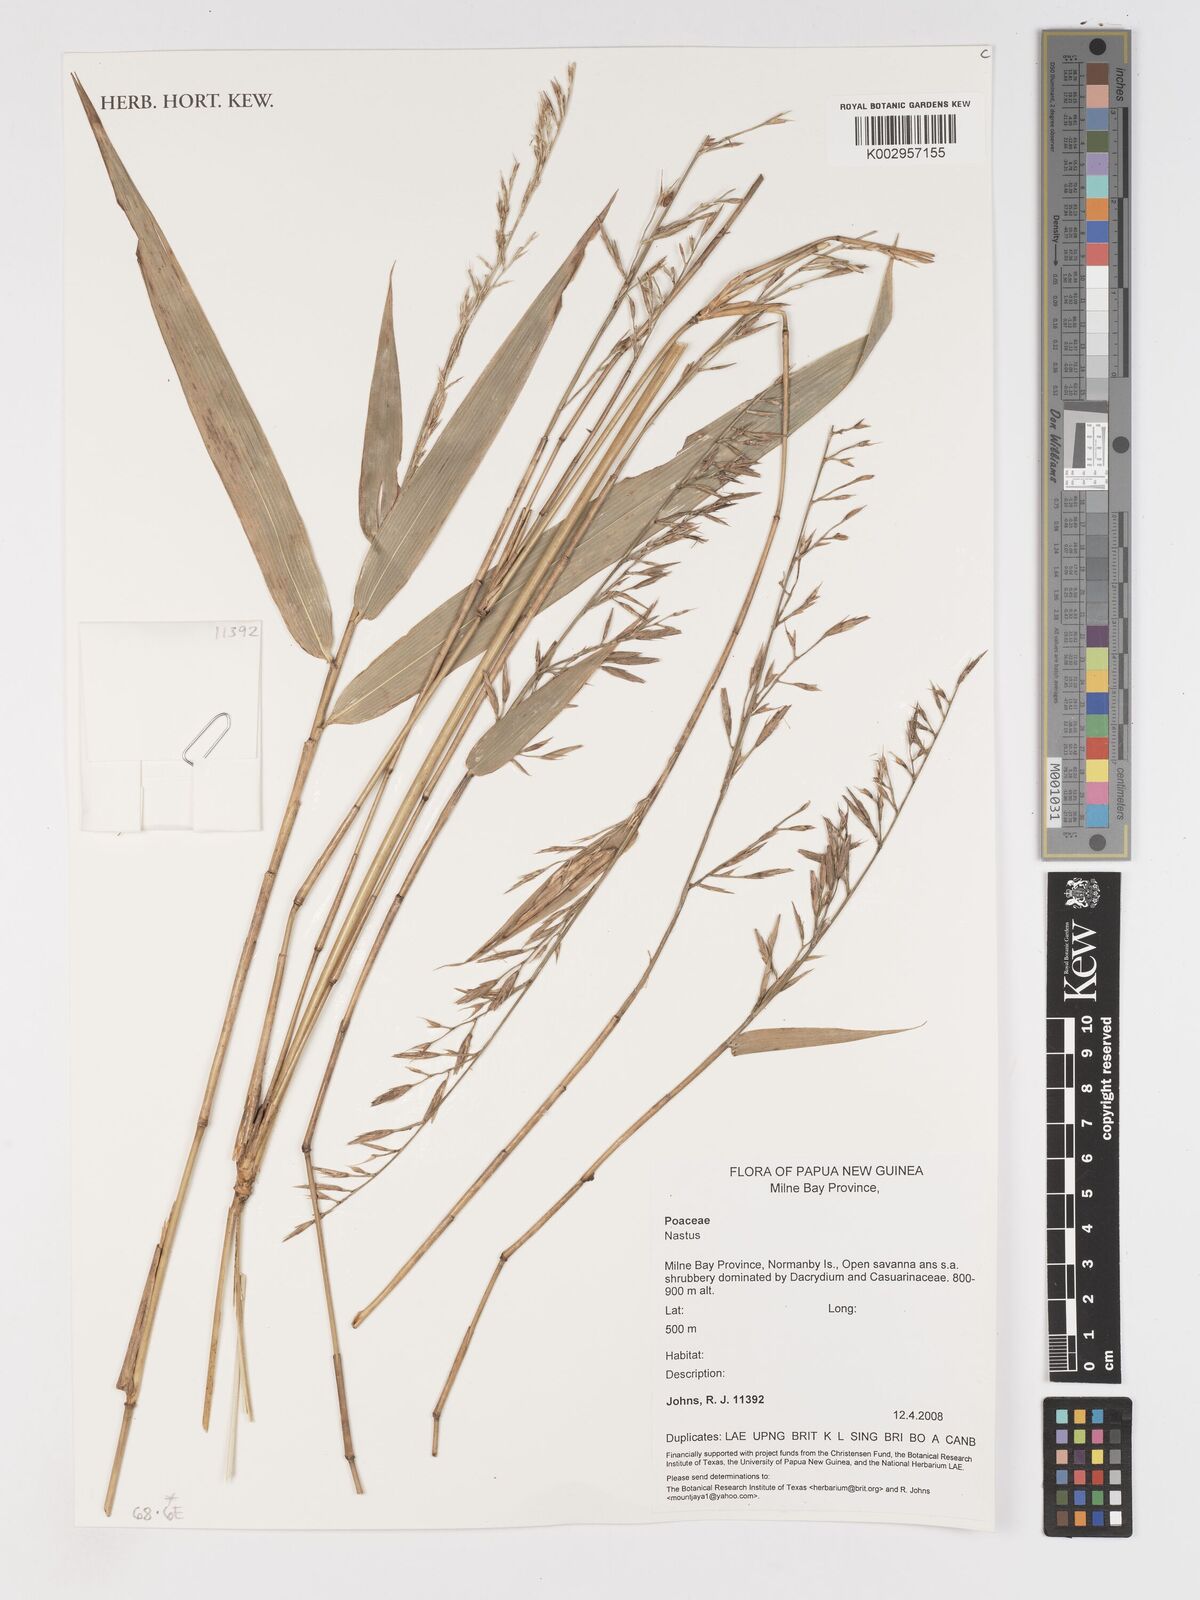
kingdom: Plantae
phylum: Tracheophyta
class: Liliopsida
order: Poales
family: Poaceae
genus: Chloothamnus
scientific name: Chloothamnus
